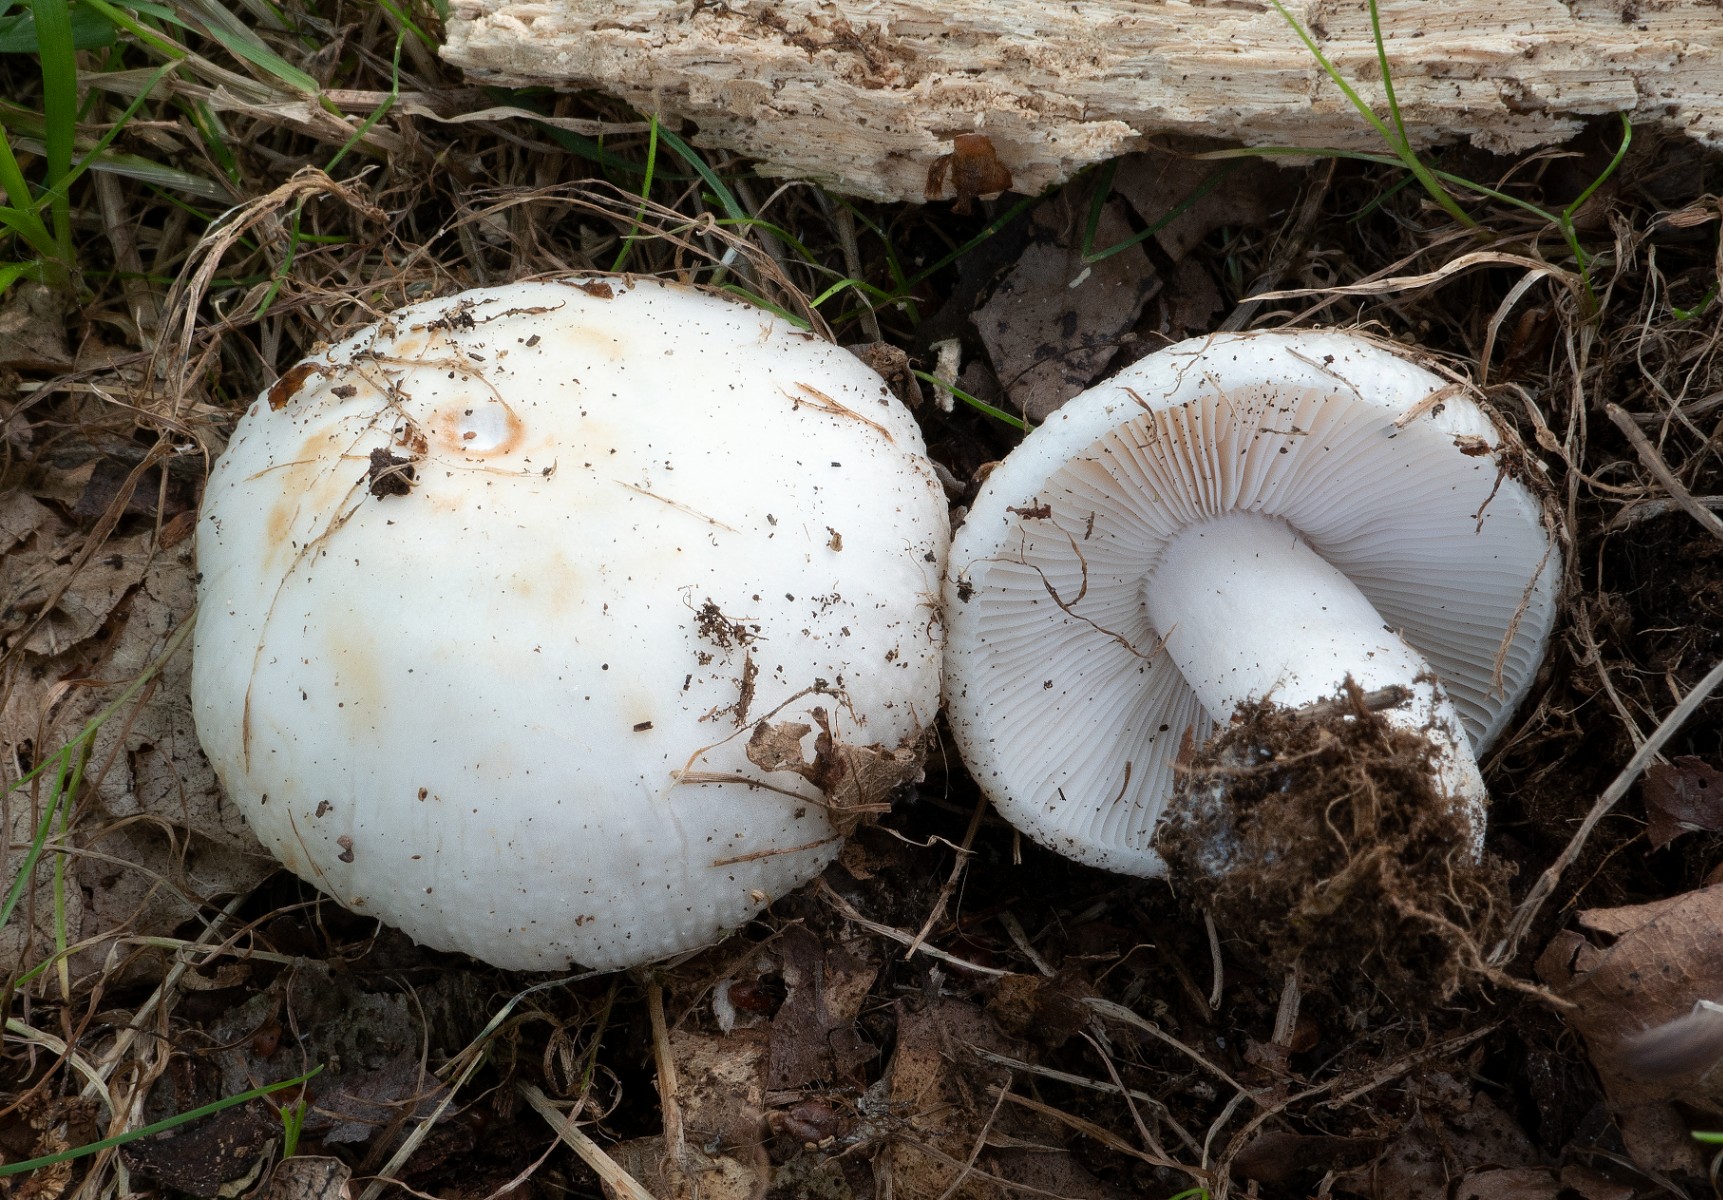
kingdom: Fungi
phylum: Basidiomycota
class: Agaricomycetes
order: Russulales
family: Russulaceae
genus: Russula
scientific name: Russula amoenolens
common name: skarp kam-skørhat
